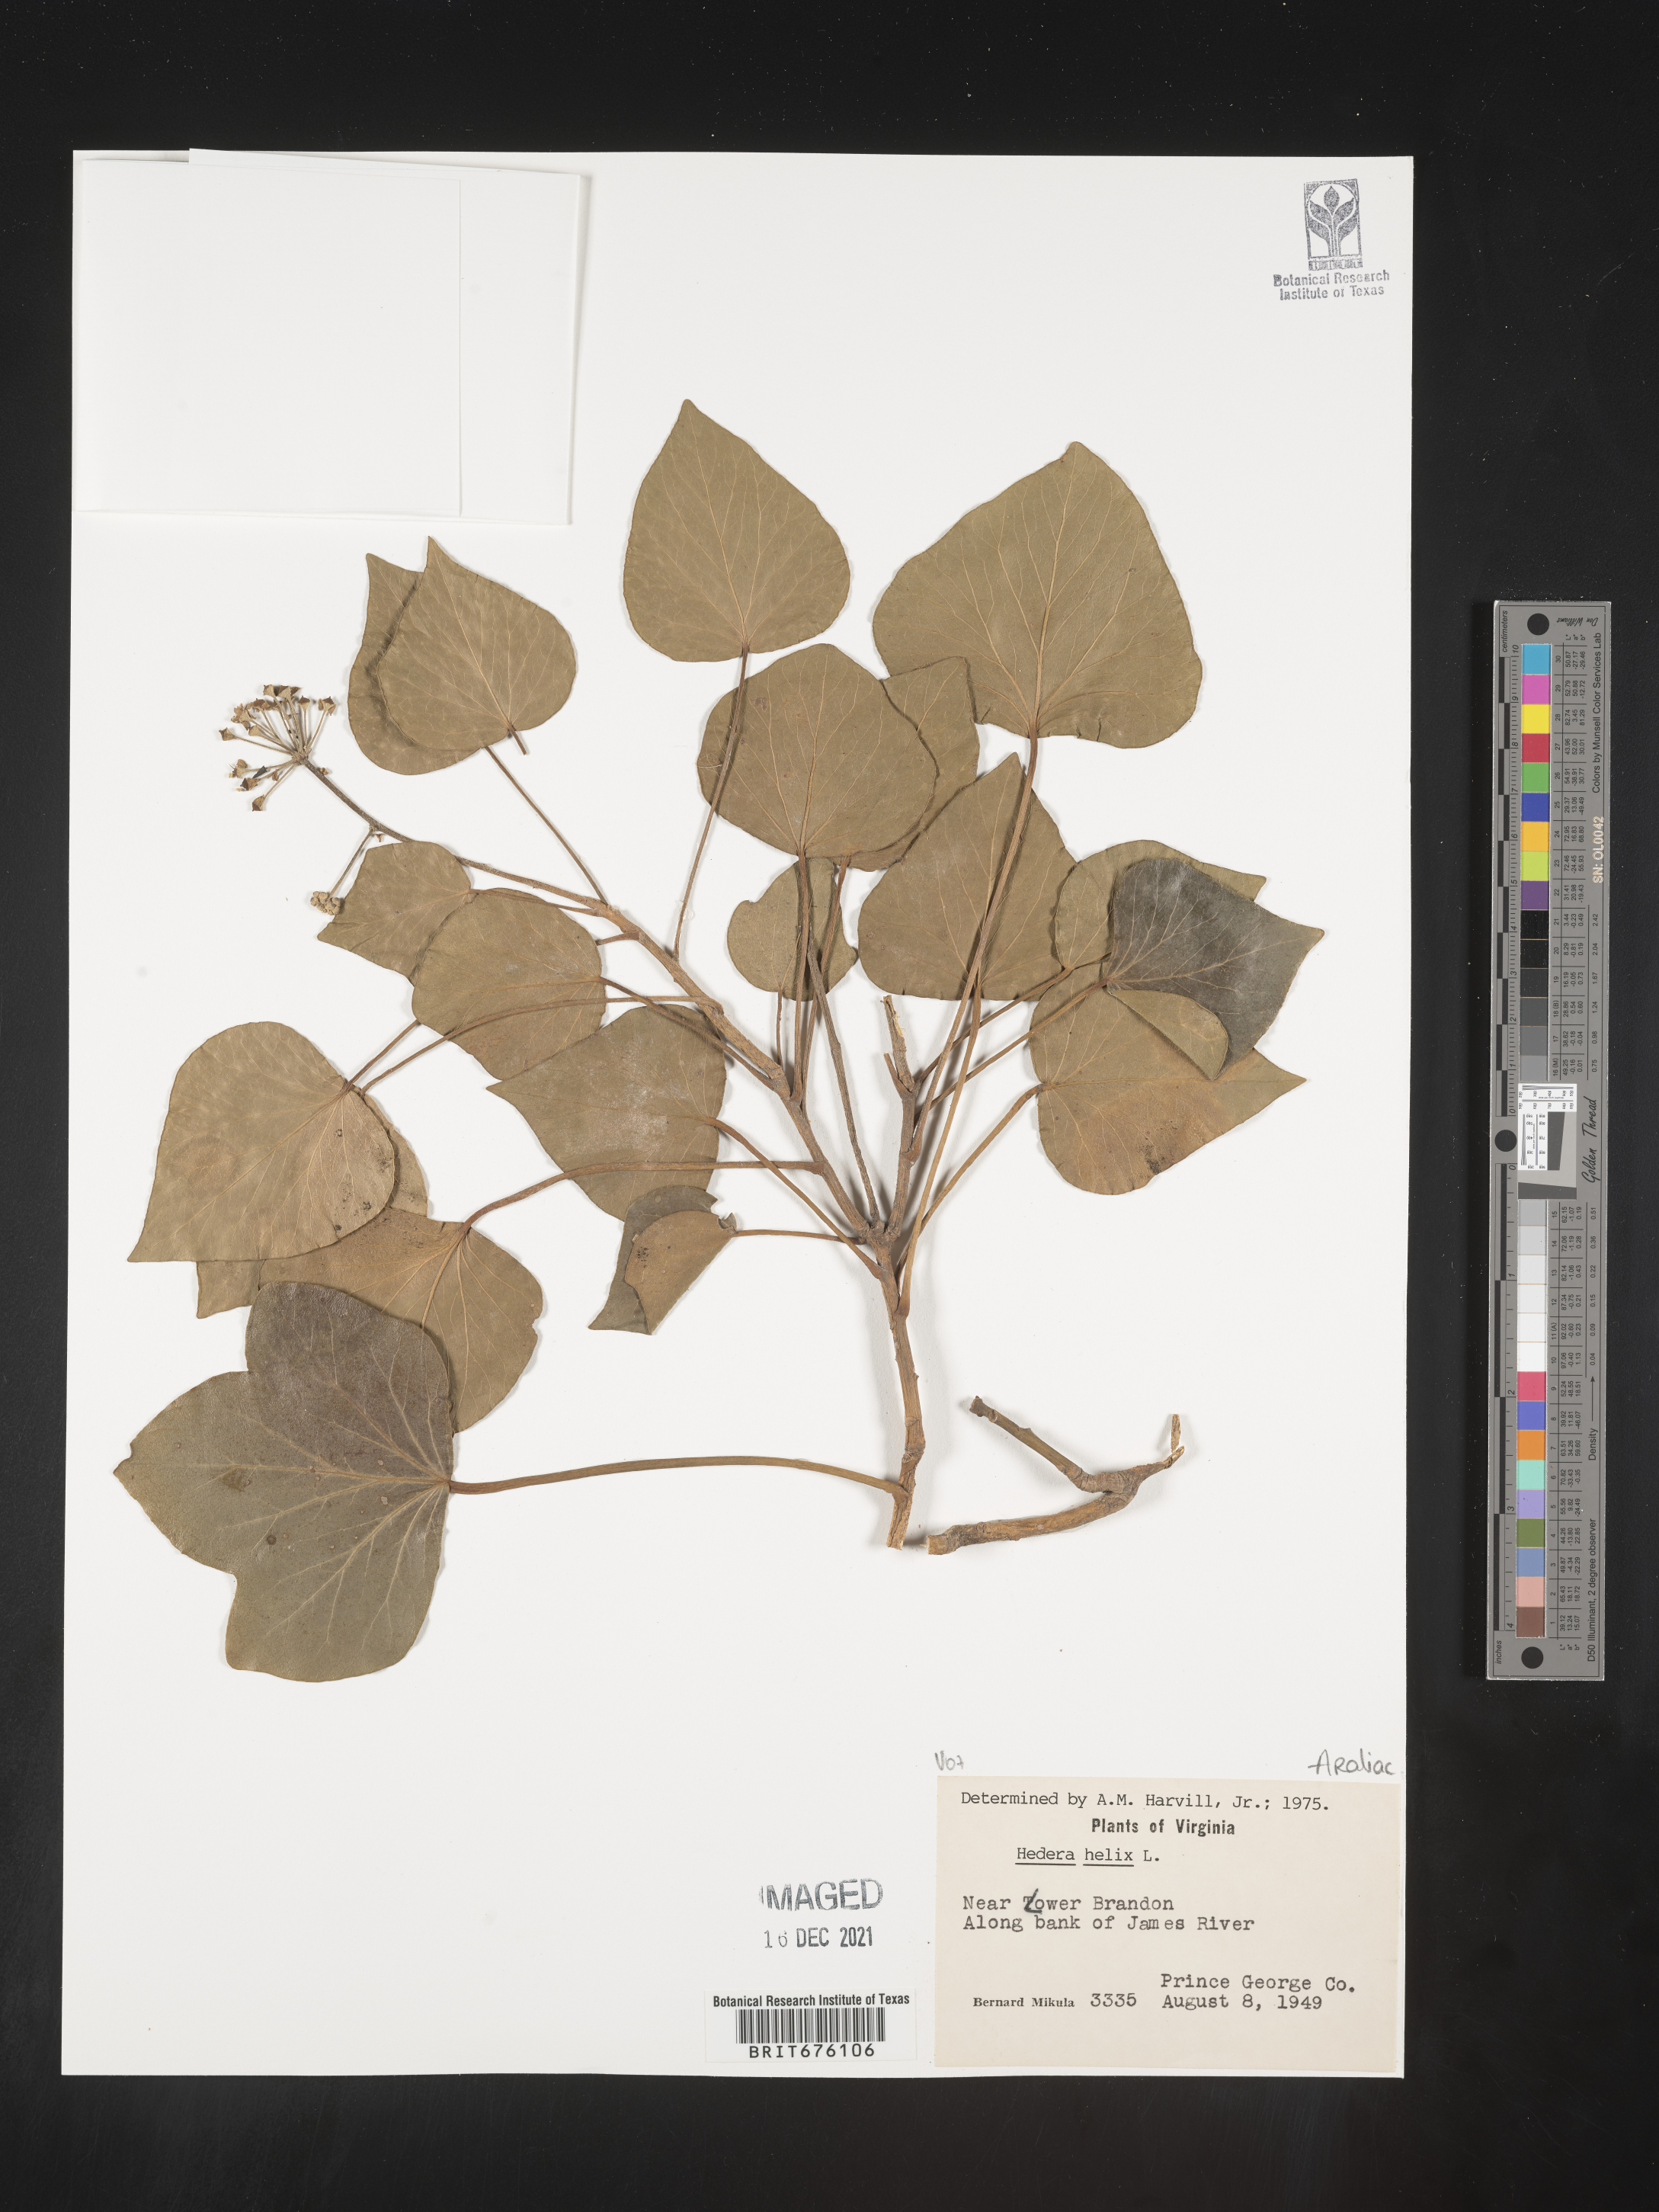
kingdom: Plantae
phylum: Tracheophyta
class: Magnoliopsida
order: Apiales
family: Araliaceae
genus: Hedera
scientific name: Hedera
